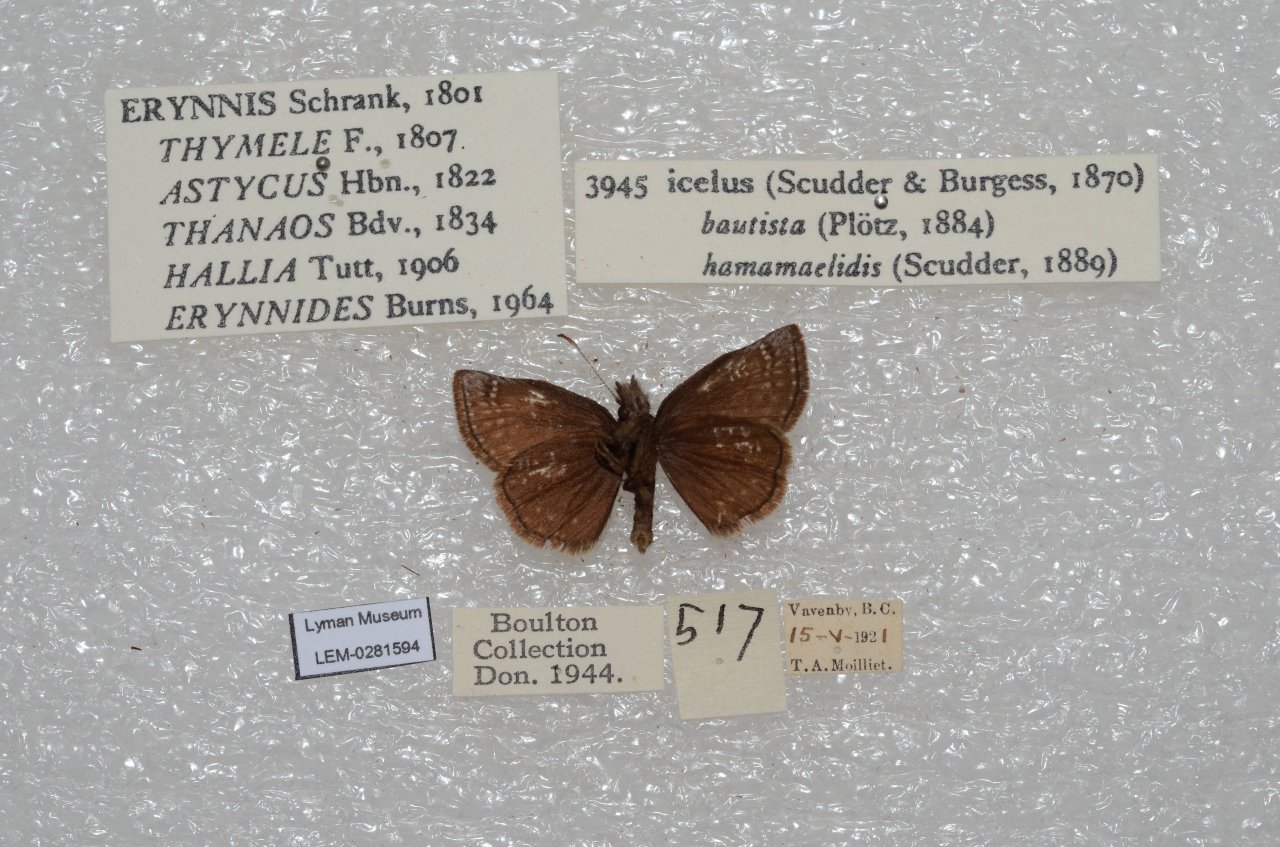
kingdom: Animalia
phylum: Arthropoda
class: Insecta
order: Lepidoptera
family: Hesperiidae
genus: Erynnis
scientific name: Erynnis icelus
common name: Dreamy Duskywing
